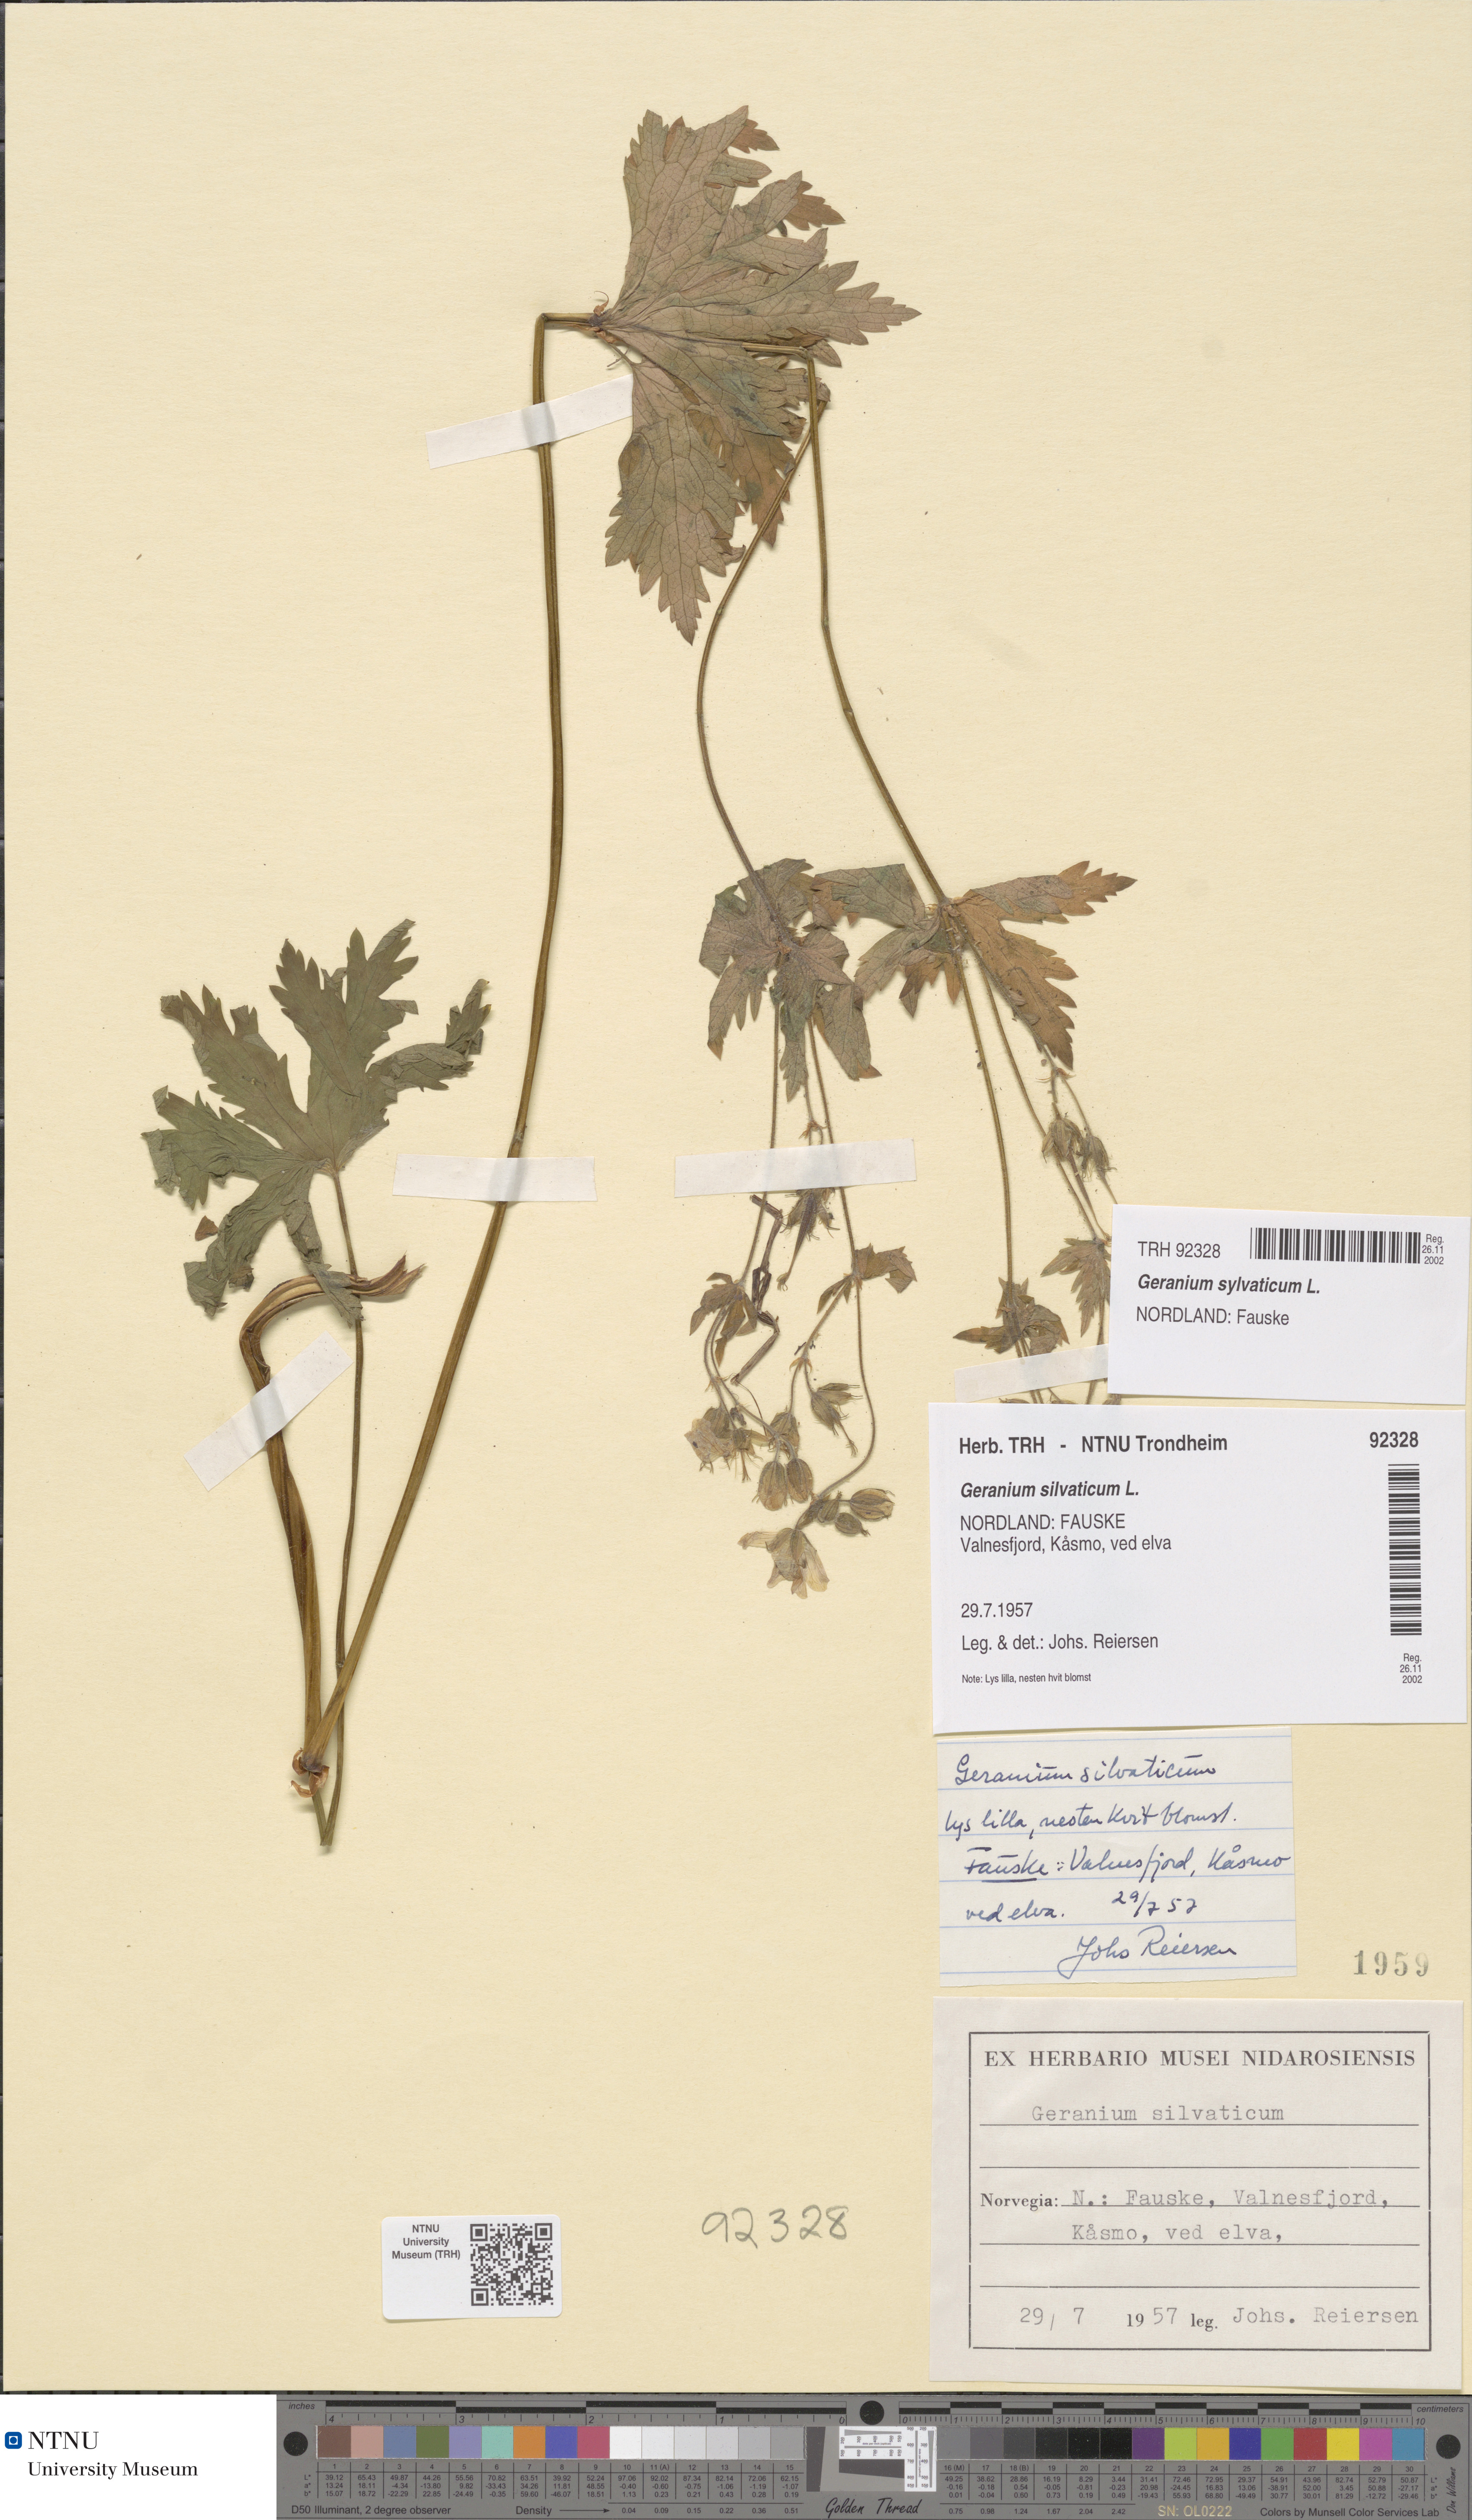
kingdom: Plantae
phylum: Tracheophyta
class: Magnoliopsida
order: Geraniales
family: Geraniaceae
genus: Geranium
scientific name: Geranium sylvaticum
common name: Wood crane's-bill
